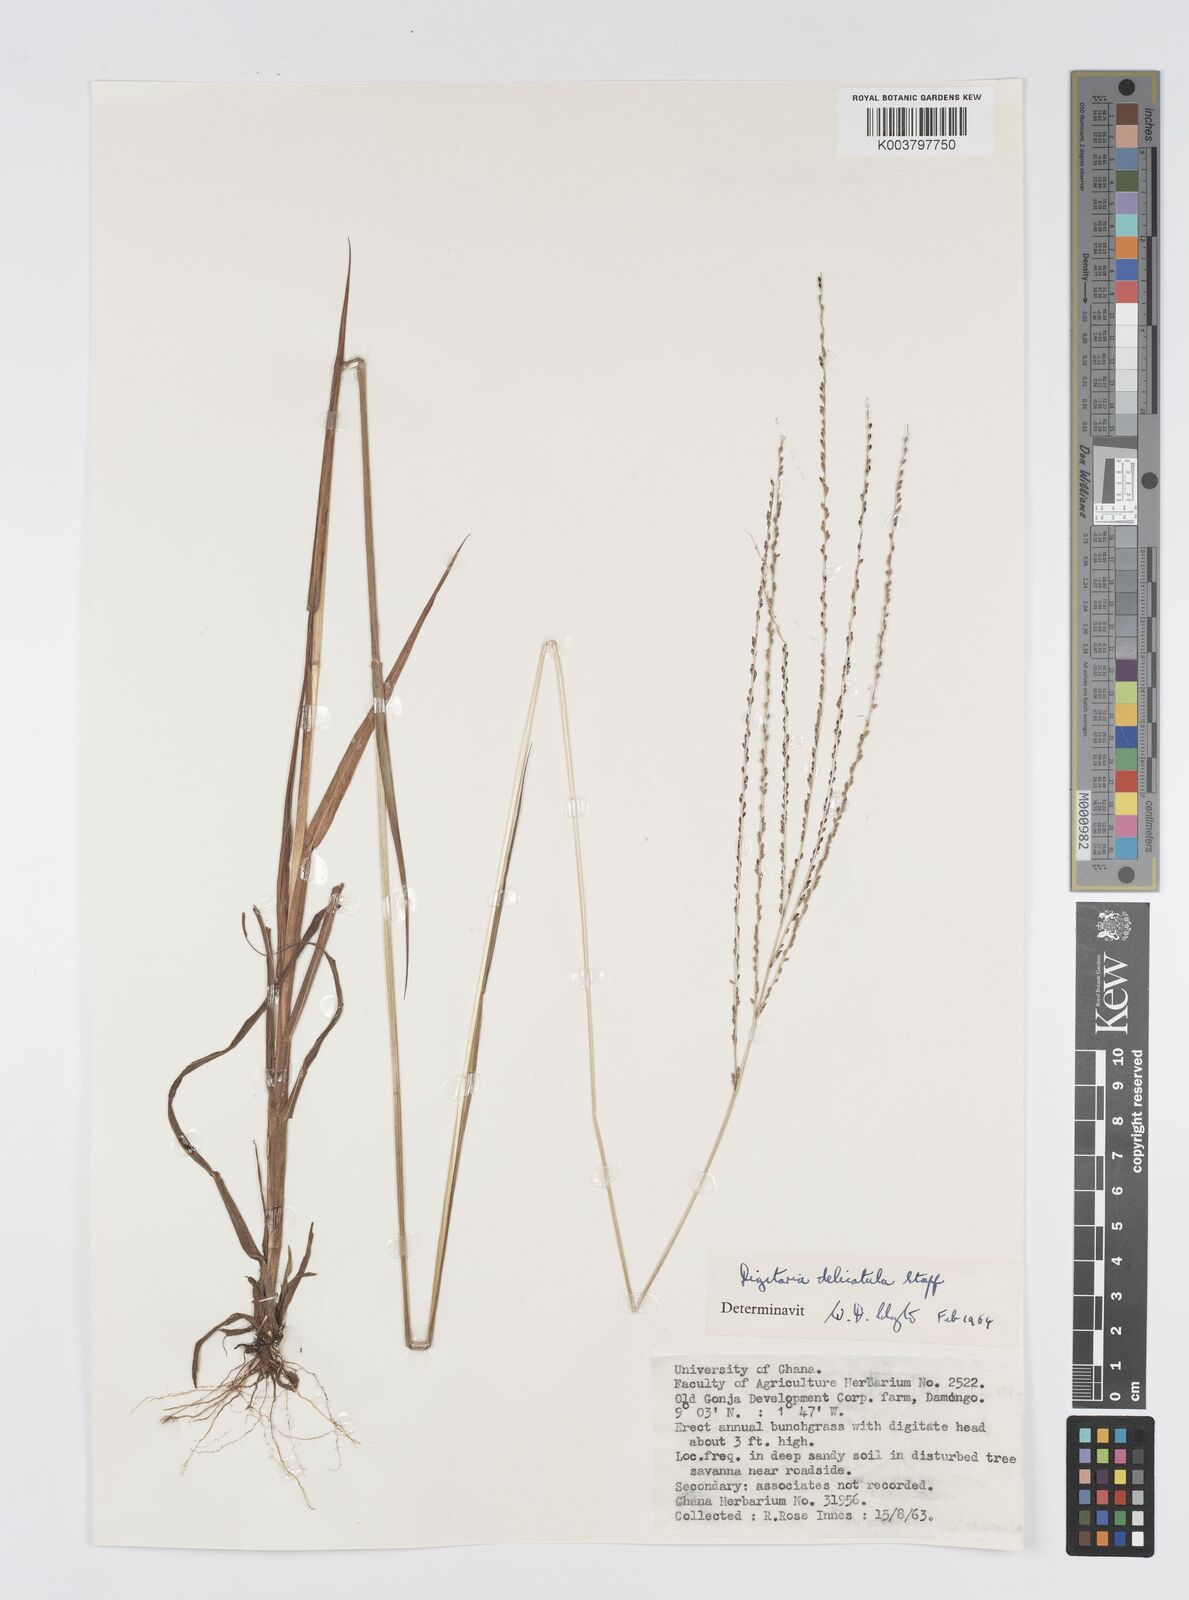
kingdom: Plantae
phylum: Tracheophyta
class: Liliopsida
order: Poales
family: Poaceae
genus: Digitaria
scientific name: Digitaria delicatula
